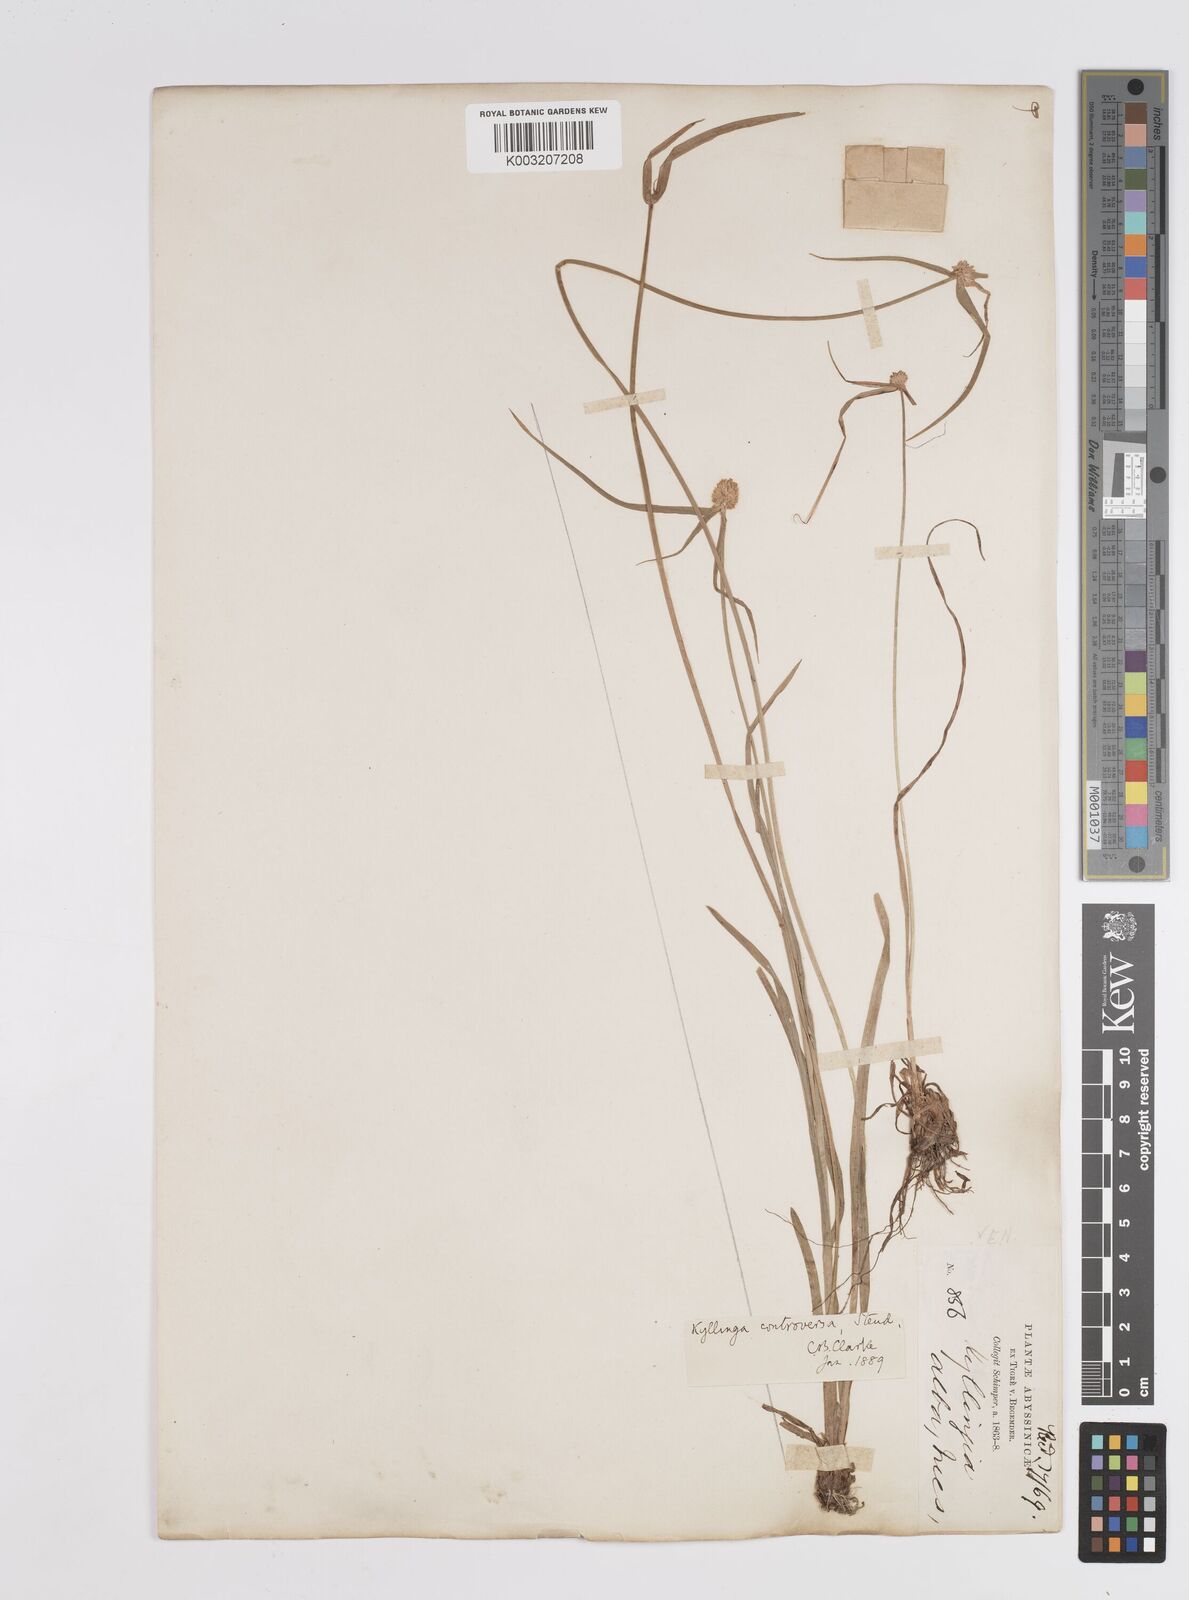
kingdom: Plantae
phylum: Tracheophyta
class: Liliopsida
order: Poales
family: Cyperaceae
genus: Cyperus
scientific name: Cyperus controversus
